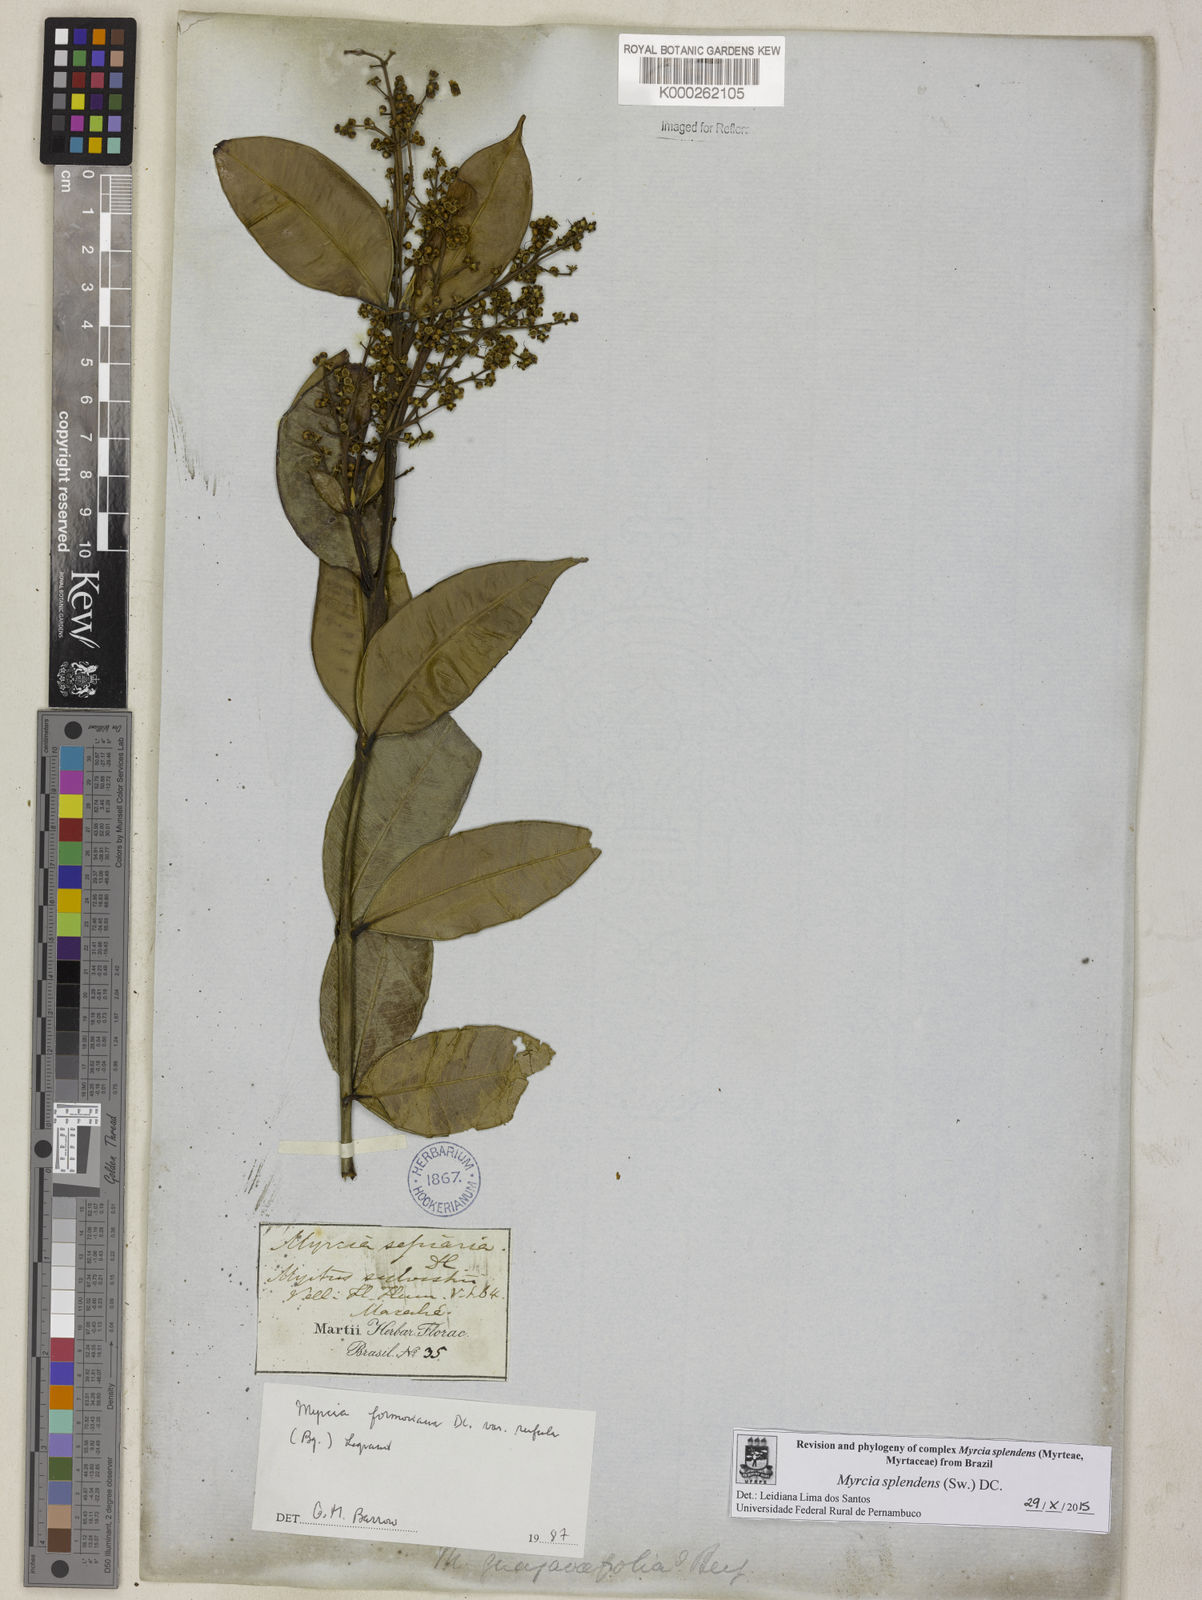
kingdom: Plantae
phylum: Tracheophyta
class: Magnoliopsida
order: Myrtales
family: Myrtaceae
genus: Myrcia
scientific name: Myrcia splendens
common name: Surinam cherry
